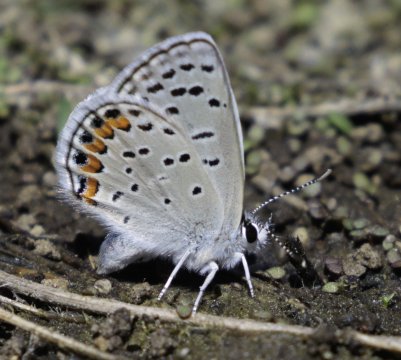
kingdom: Animalia
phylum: Arthropoda
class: Insecta
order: Lepidoptera
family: Lycaenidae
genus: Plebejus
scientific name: Plebejus lupini
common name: Lupine Blue
